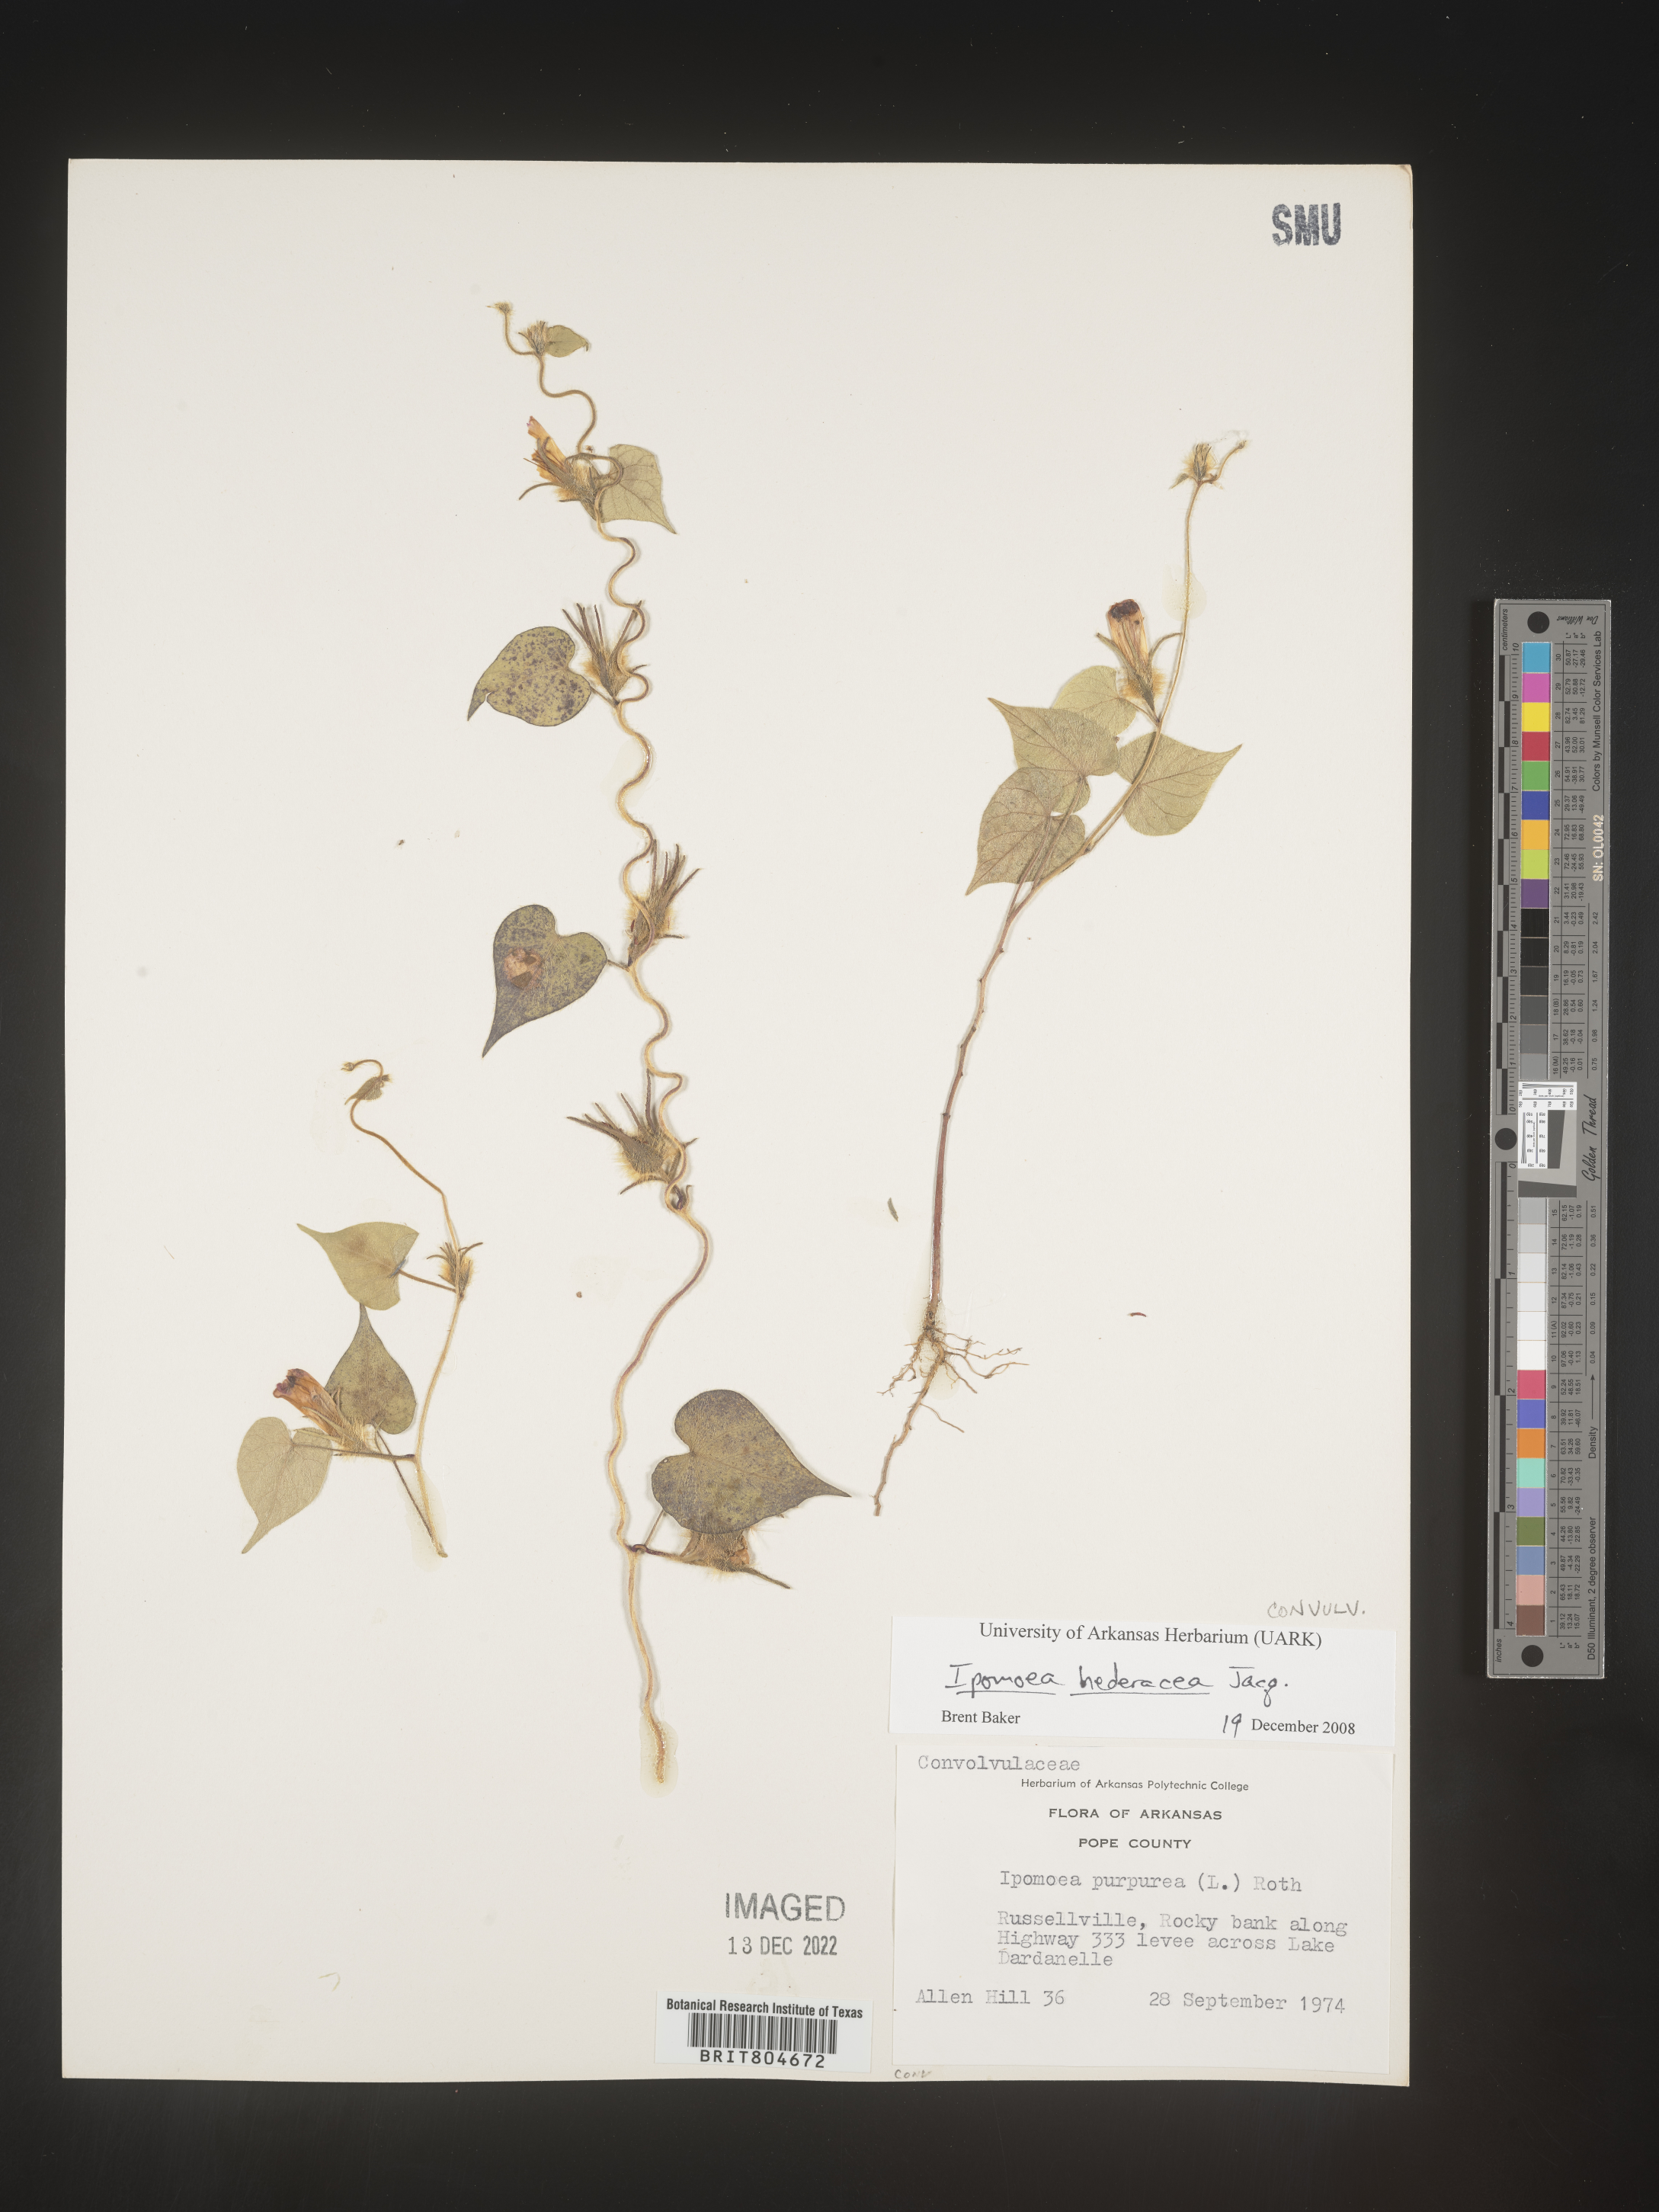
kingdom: Plantae
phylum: Tracheophyta
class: Magnoliopsida
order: Solanales
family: Convolvulaceae
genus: Ipomoea
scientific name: Ipomoea hederacea
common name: Ivy-leaved morning-glory
